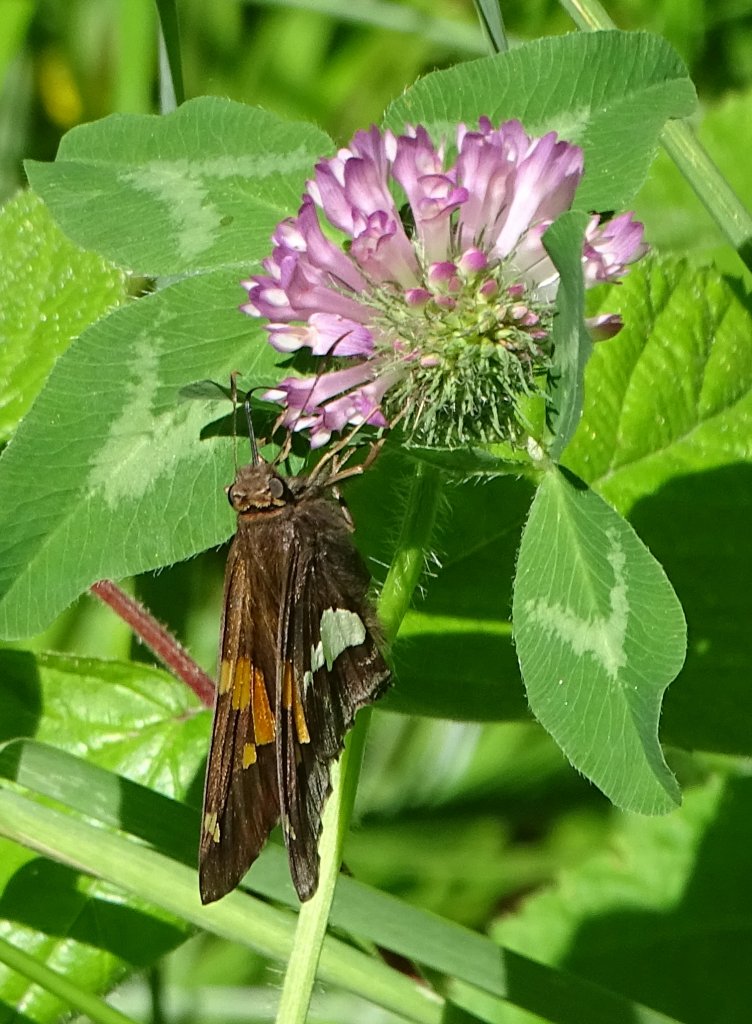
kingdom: Animalia
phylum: Arthropoda
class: Insecta
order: Lepidoptera
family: Hesperiidae
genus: Epargyreus
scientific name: Epargyreus clarus
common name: Silver-spotted Skipper
